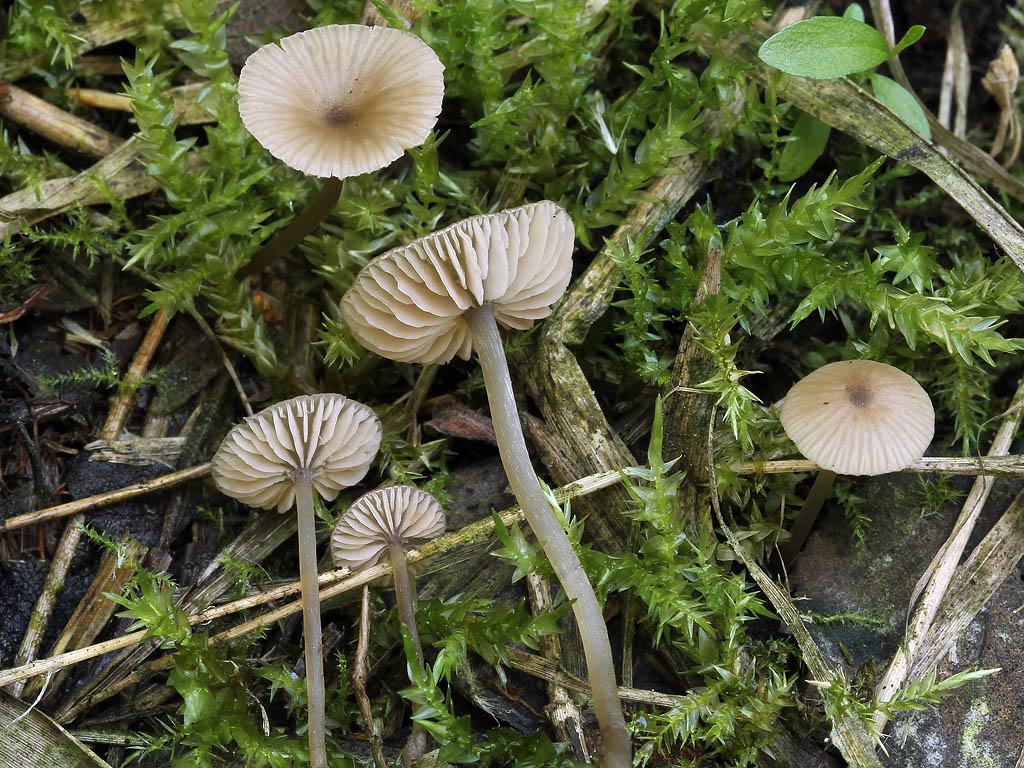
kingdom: Fungi
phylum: Basidiomycota
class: Agaricomycetes
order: Agaricales
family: Entolomataceae
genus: Entoloma
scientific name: Entoloma
